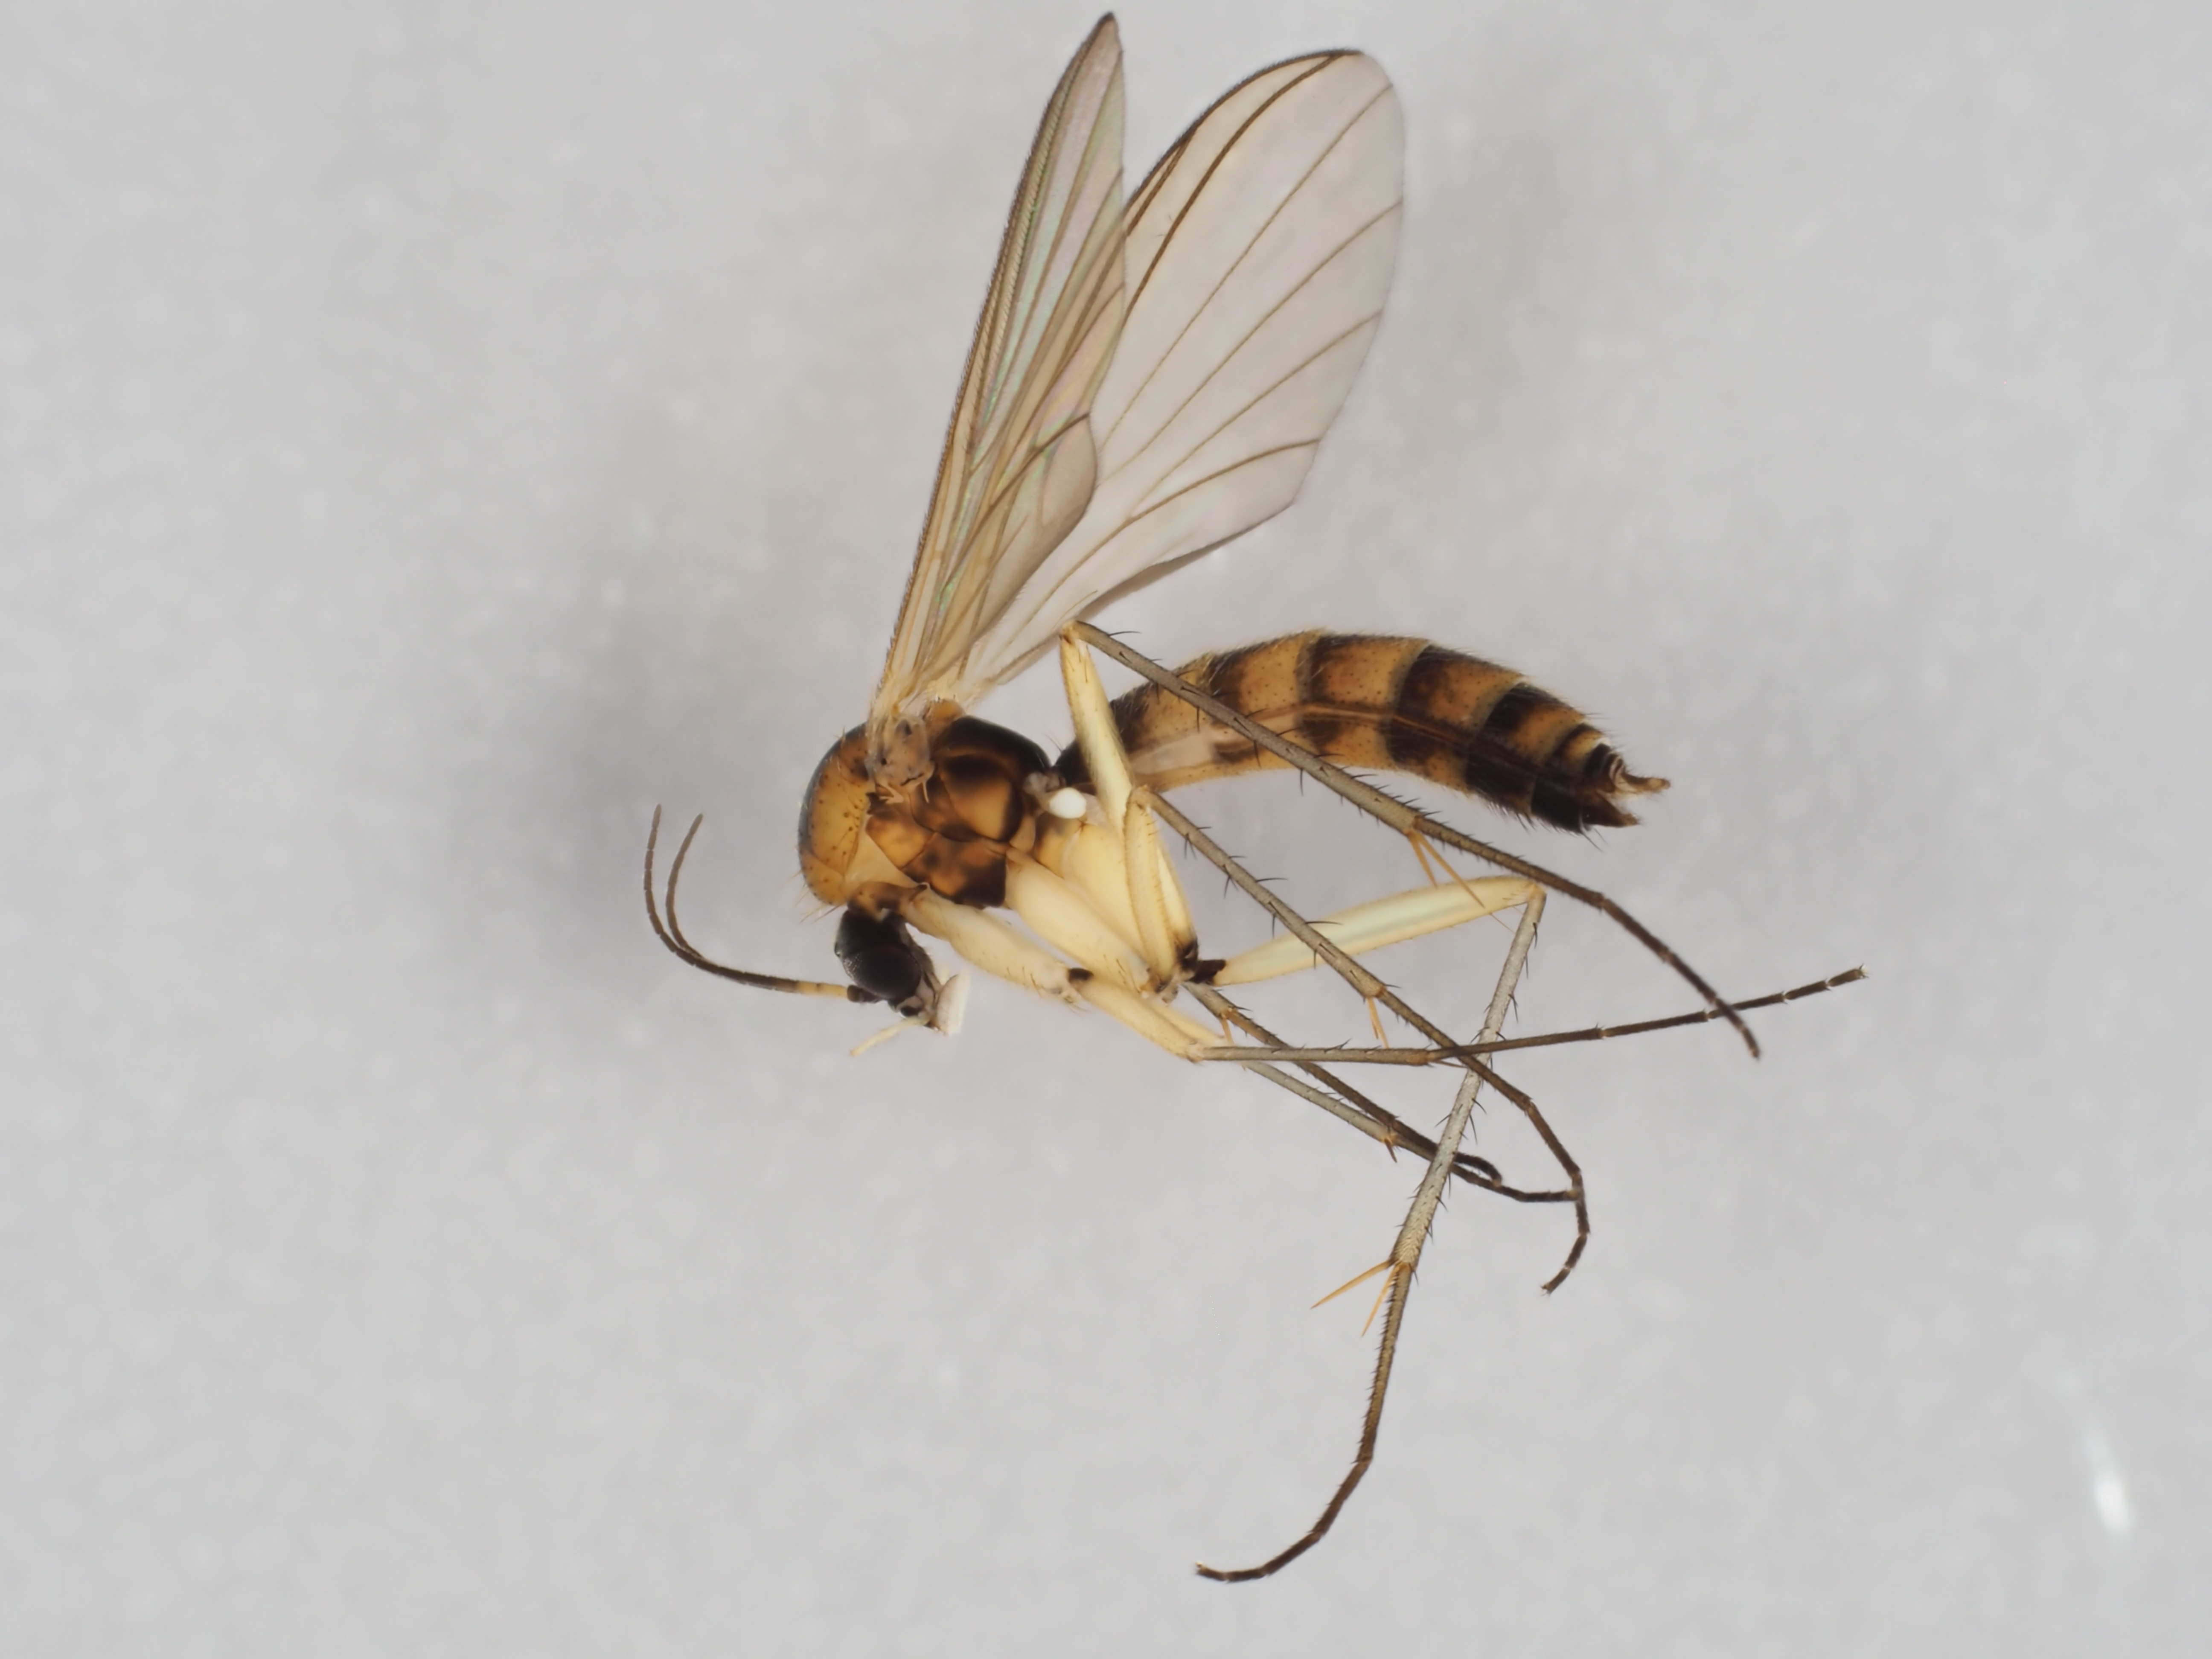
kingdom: Animalia
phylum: Arthropoda
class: Insecta
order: Diptera
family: Mycetophilidae
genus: Boletina
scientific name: Boletina basalis
